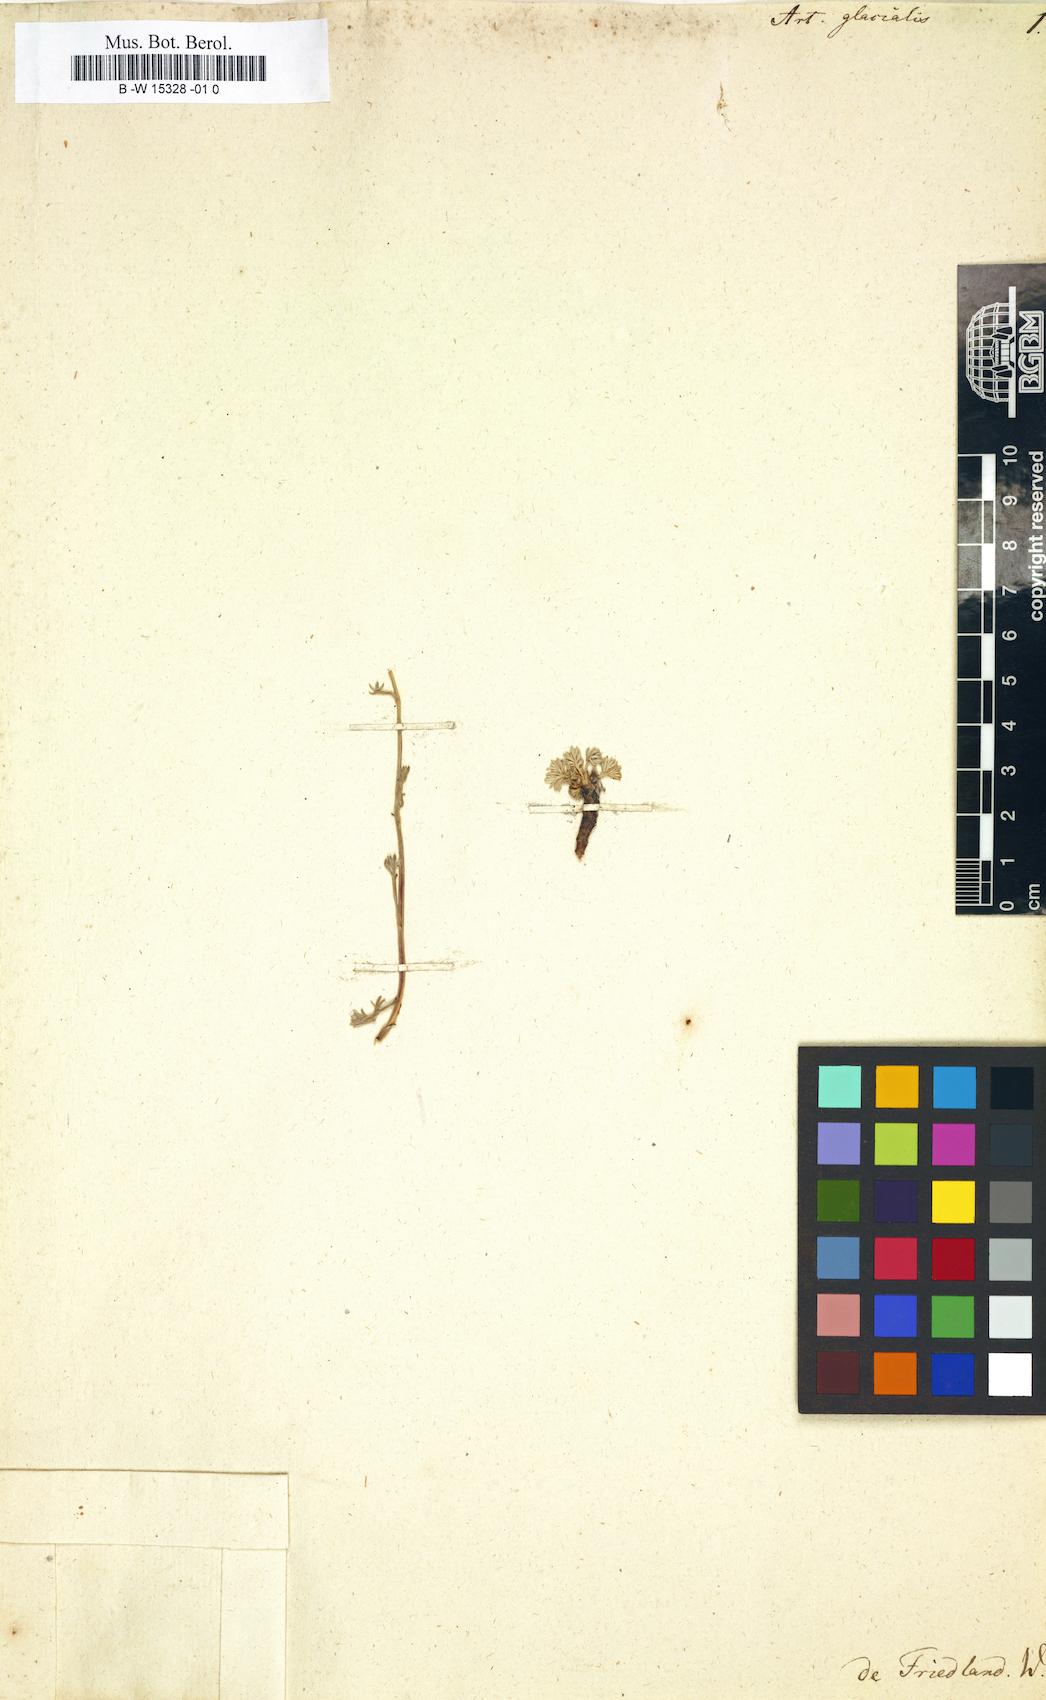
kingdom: Plantae
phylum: Tracheophyta
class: Magnoliopsida
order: Asterales
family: Asteraceae
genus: Artemisia
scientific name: Artemisia glacialis
